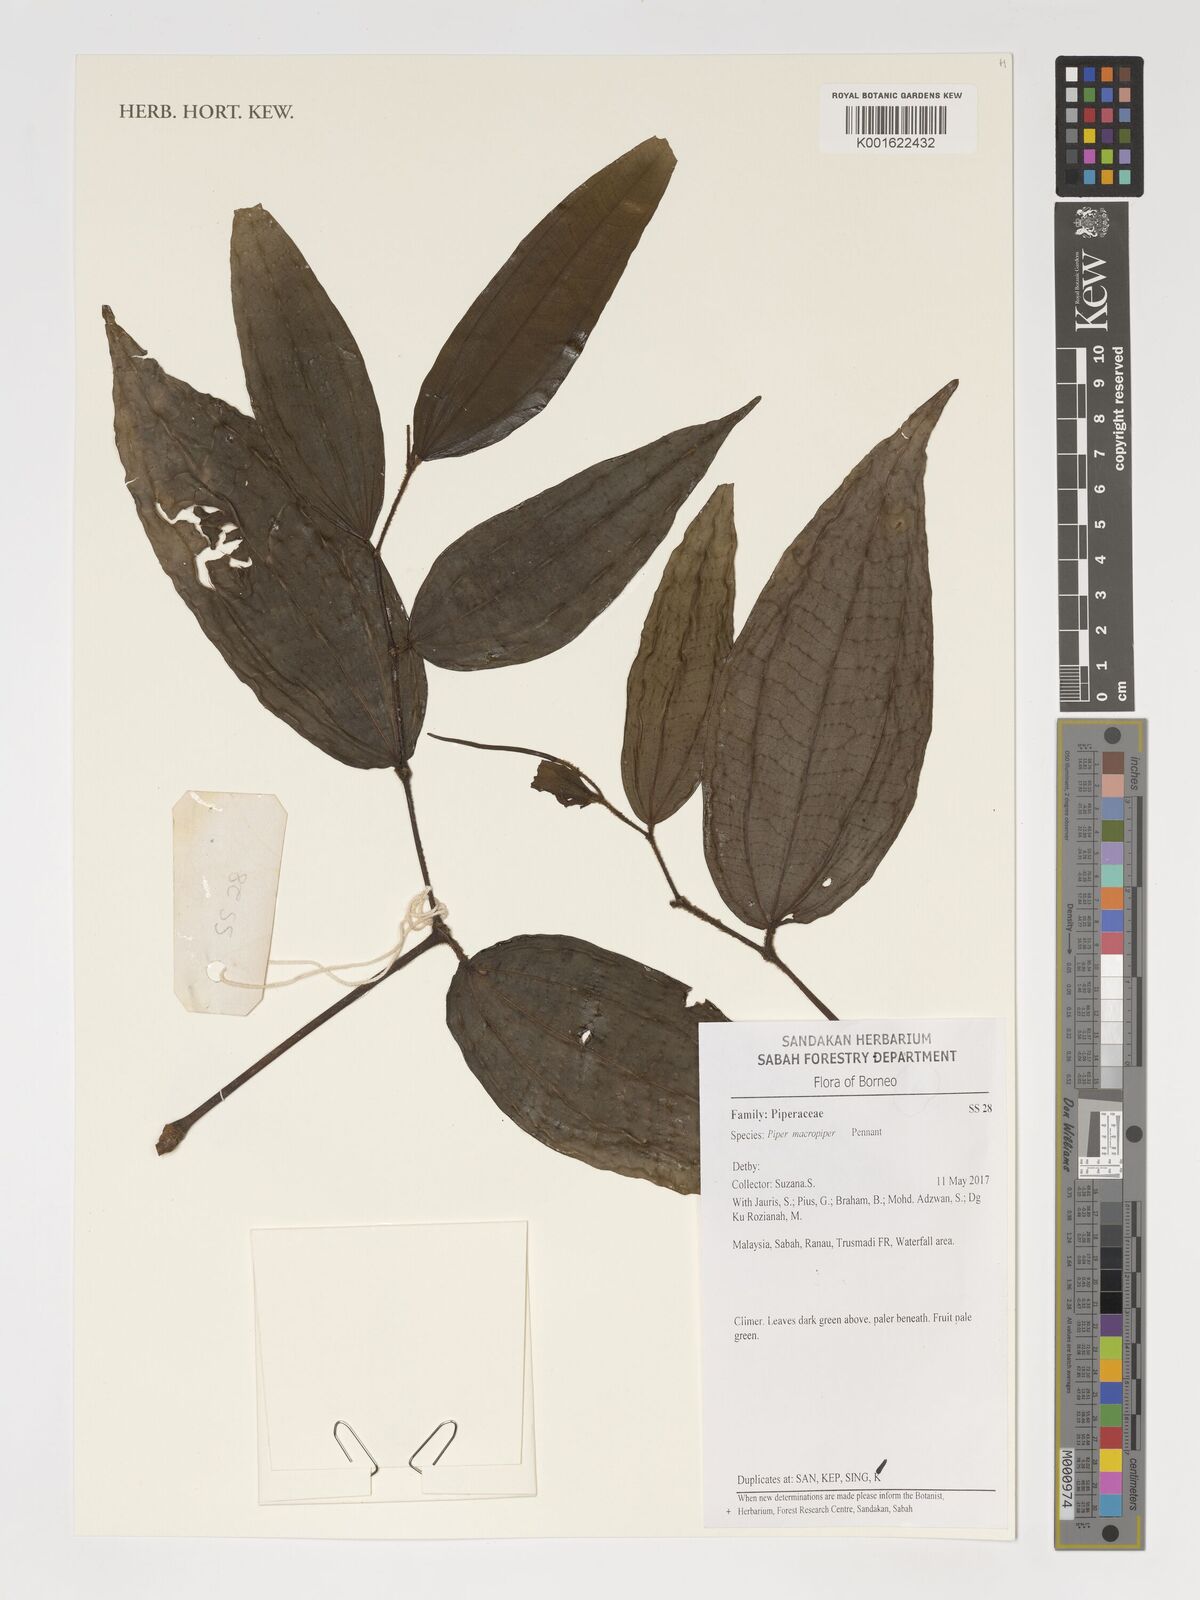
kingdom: Plantae
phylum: Tracheophyta
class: Magnoliopsida
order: Piperales
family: Piperaceae
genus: Piper
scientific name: Piper macropiper
